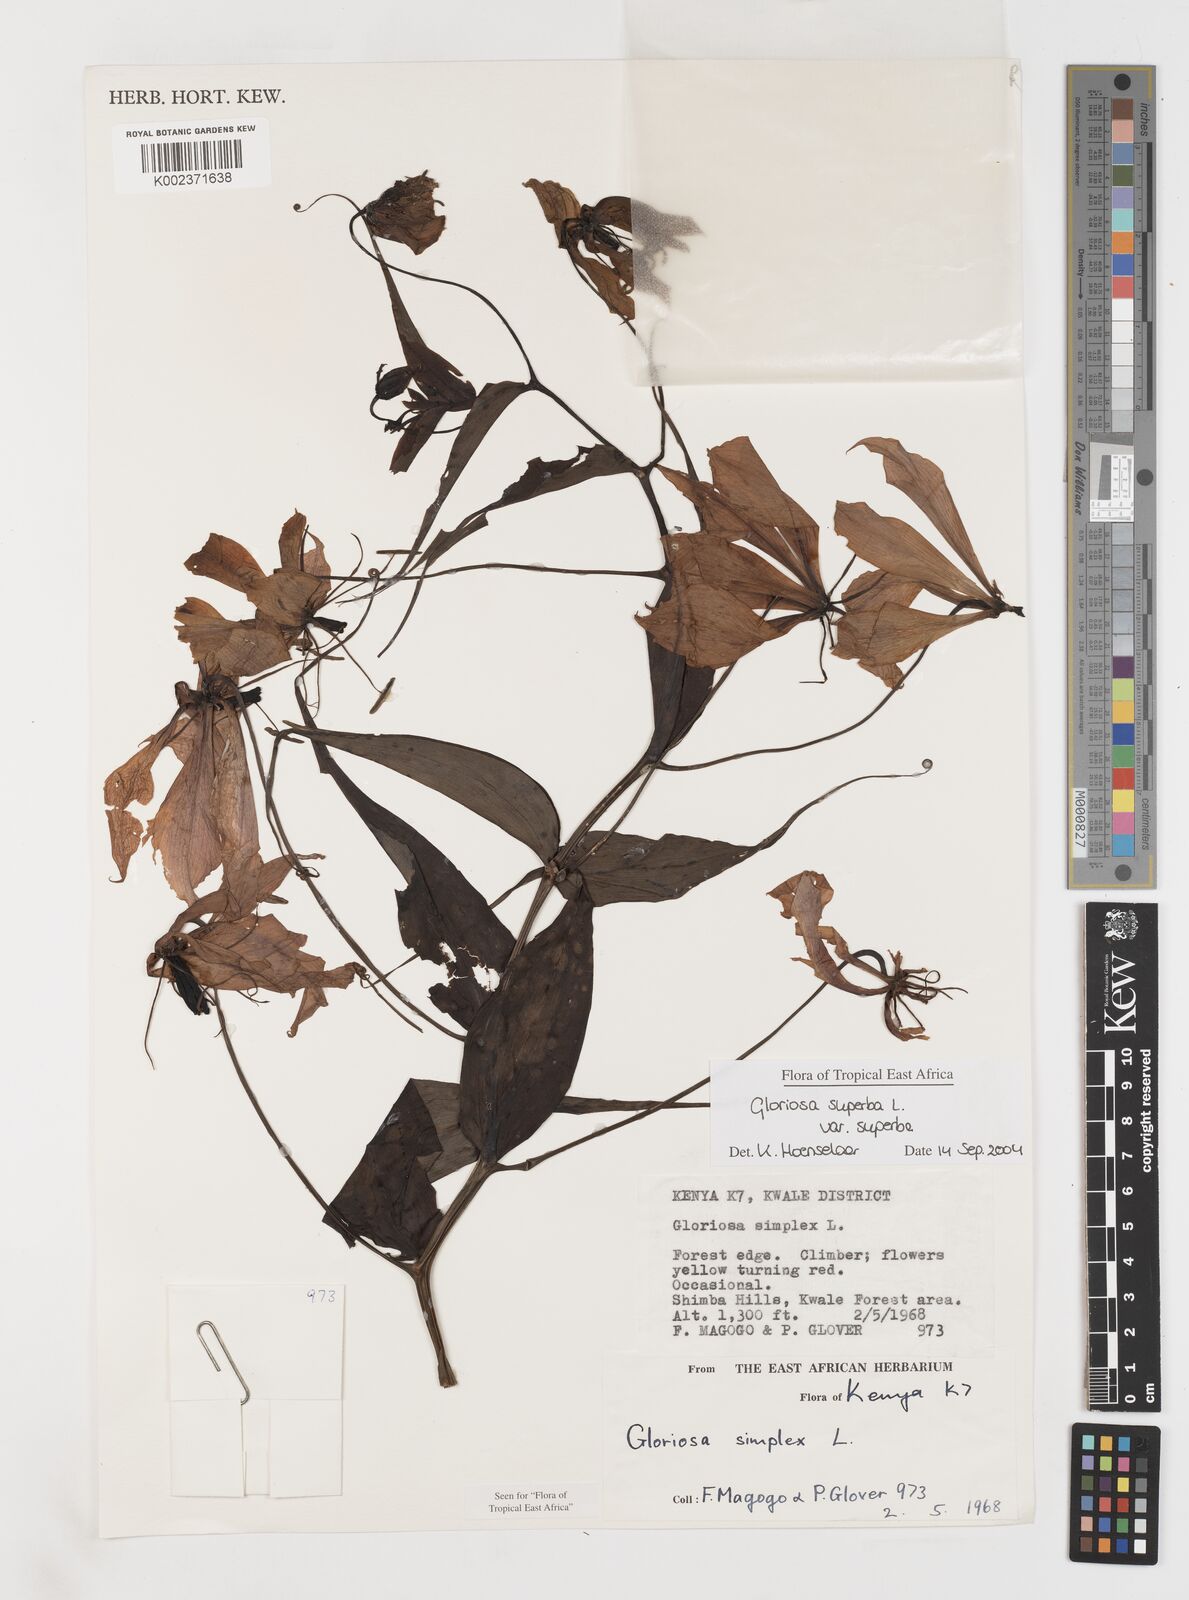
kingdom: Plantae
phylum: Tracheophyta
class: Liliopsida
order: Liliales
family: Colchicaceae
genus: Gloriosa
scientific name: Gloriosa simplex
